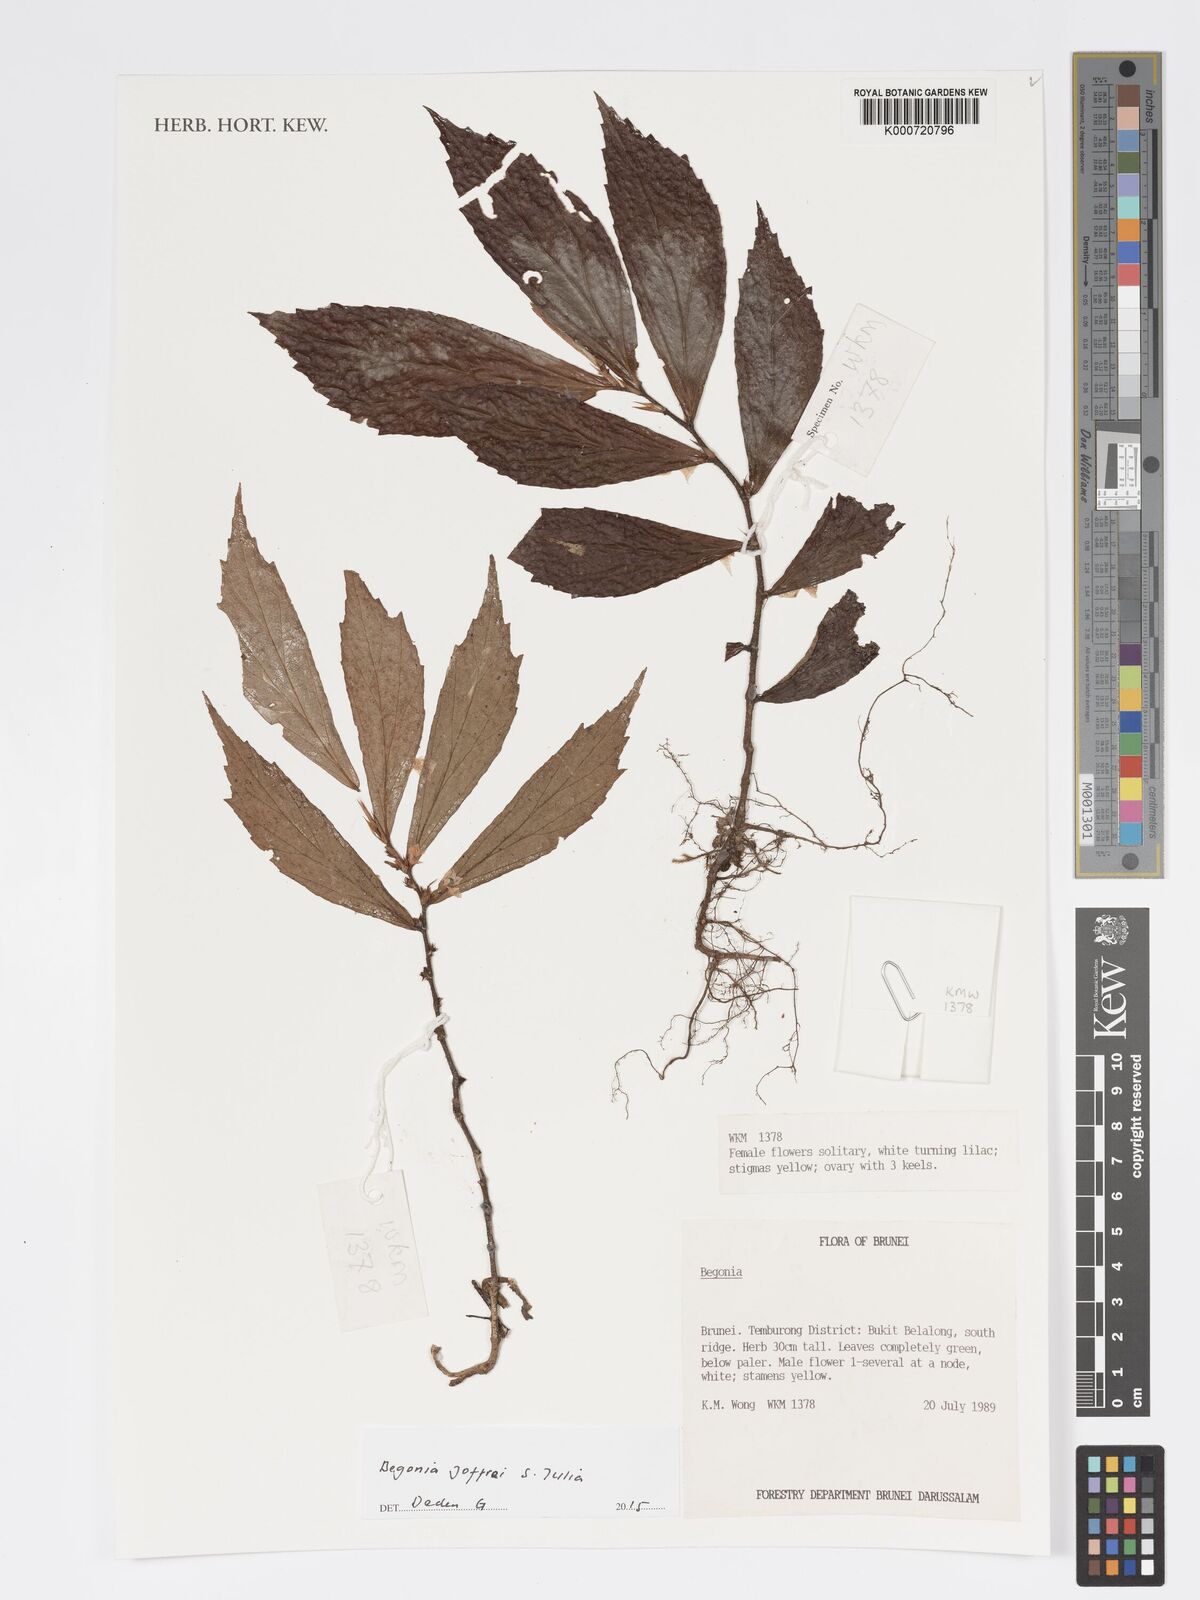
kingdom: Plantae
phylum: Tracheophyta
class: Magnoliopsida
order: Cucurbitales
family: Begoniaceae
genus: Begonia
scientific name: Begonia joffrei
